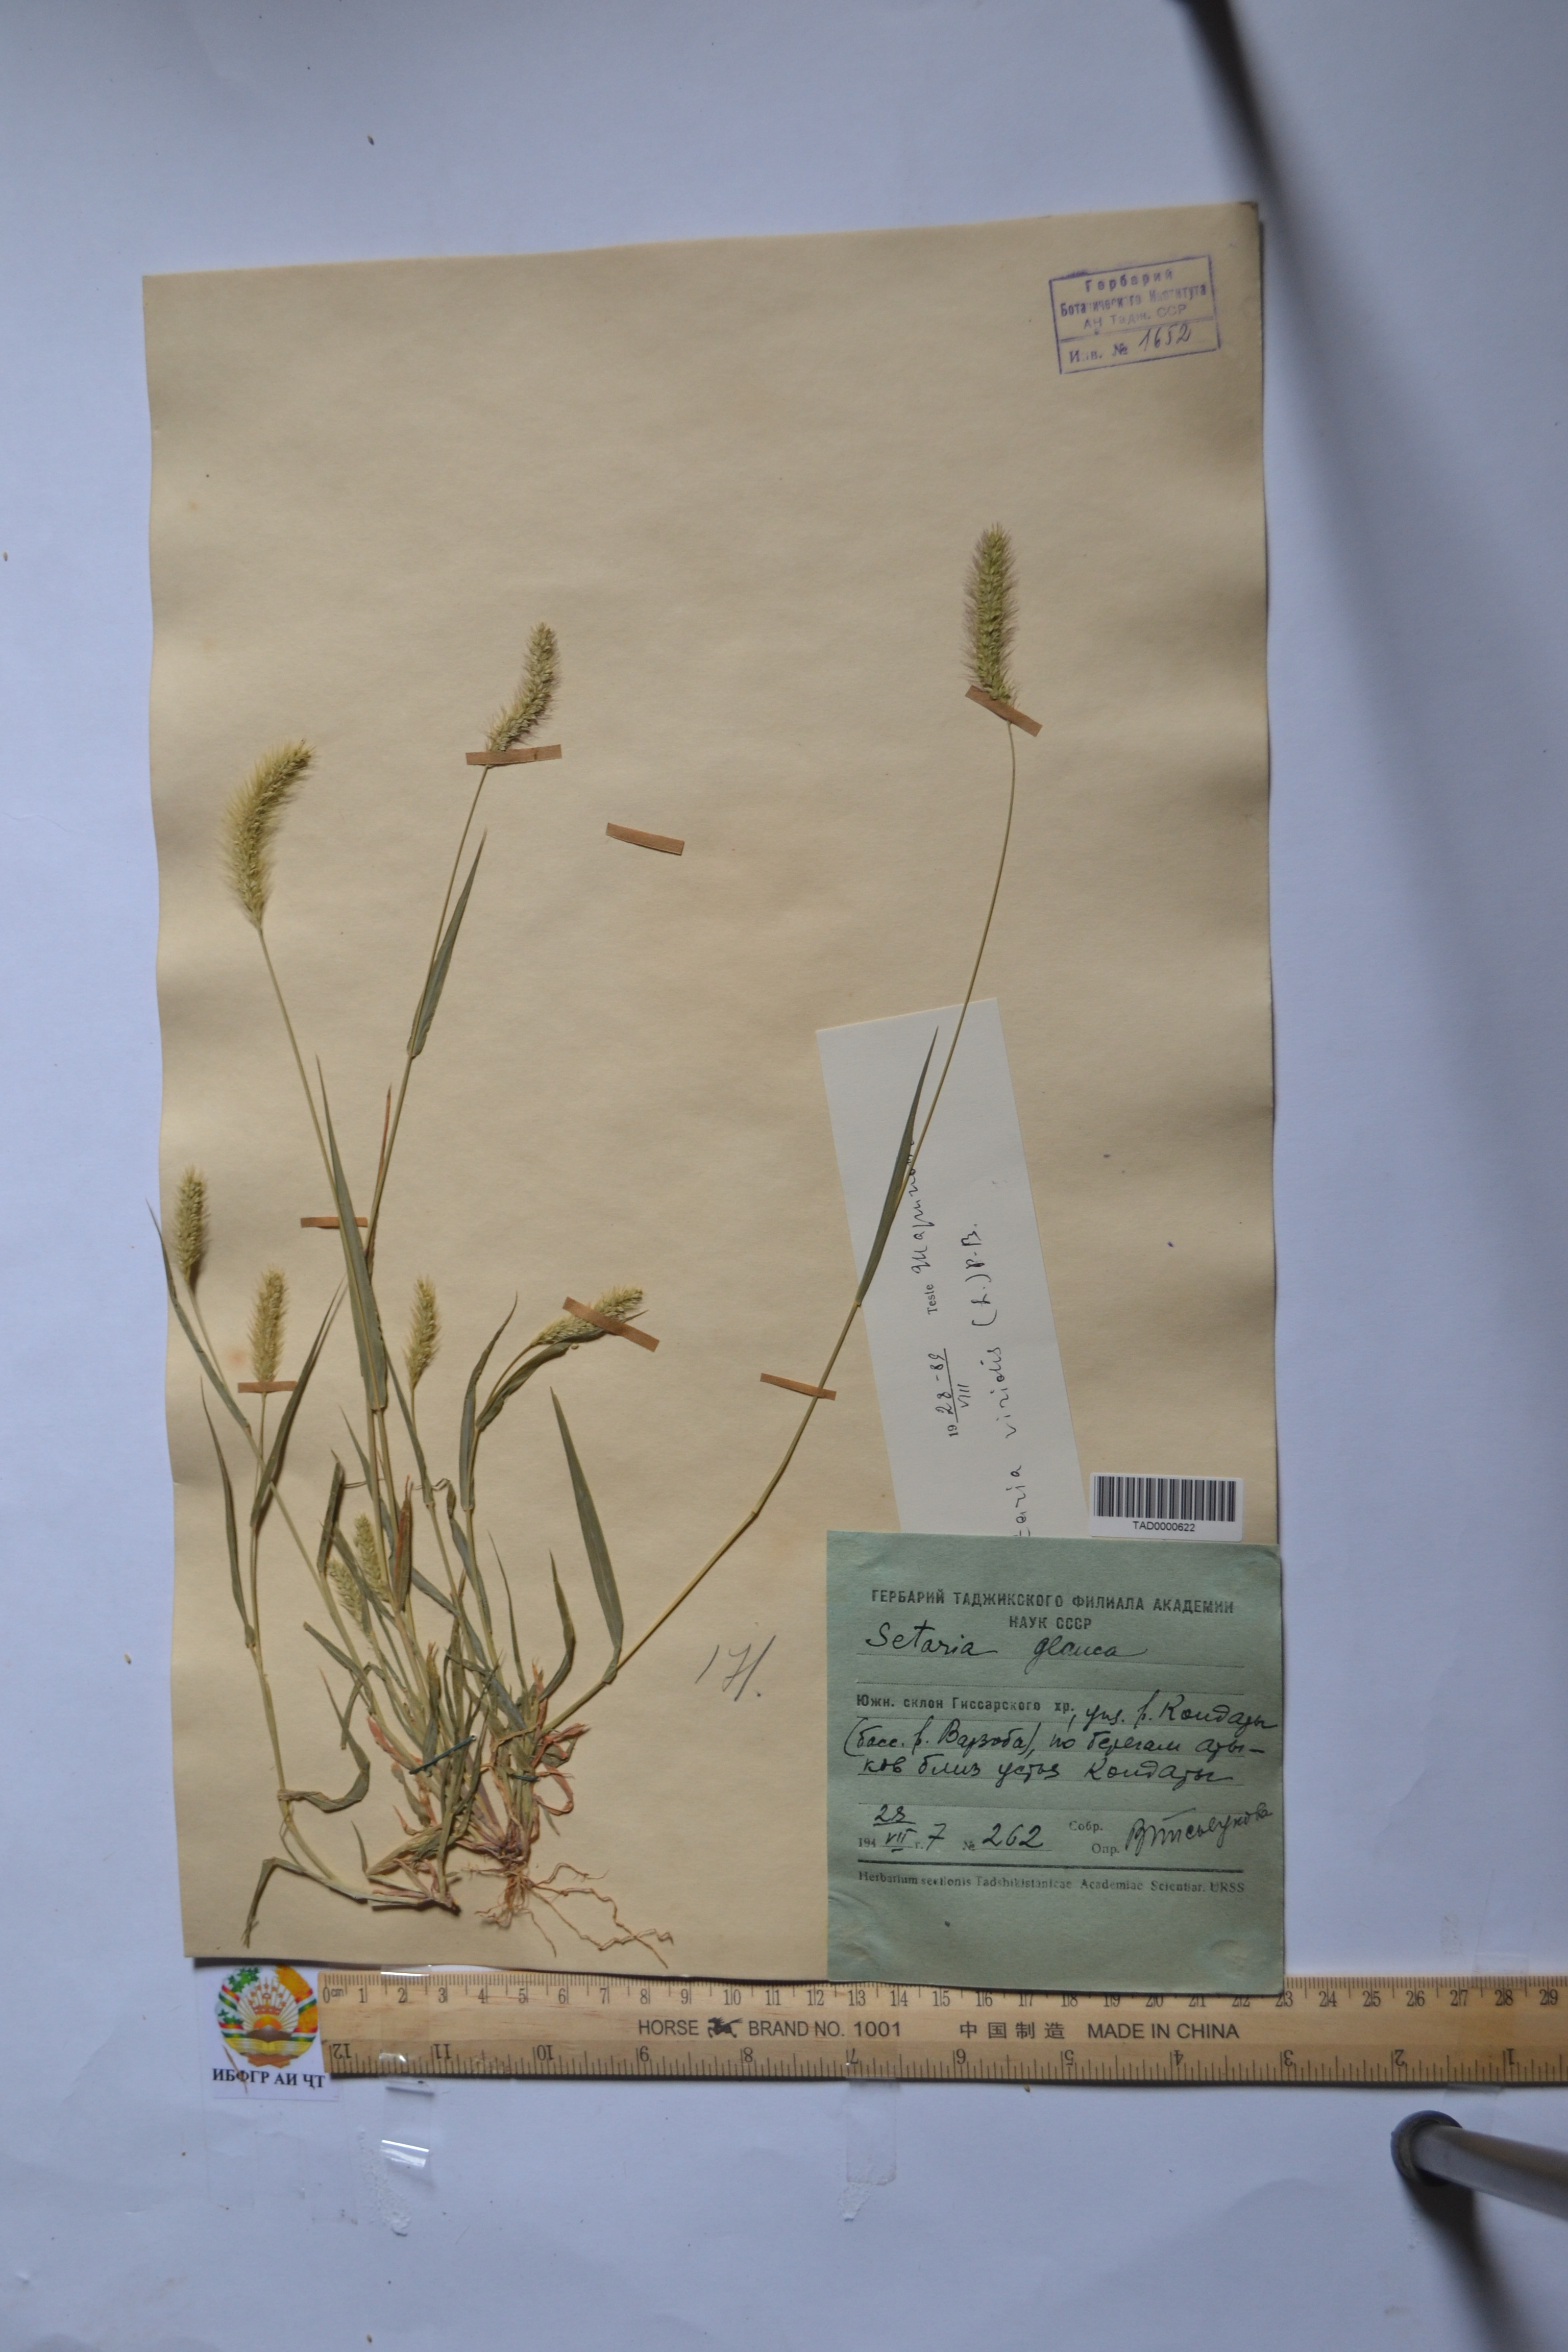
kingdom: Plantae
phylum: Tracheophyta
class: Liliopsida
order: Poales
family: Poaceae
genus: Setaria
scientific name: Setaria viridis
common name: Green bristlegrass
